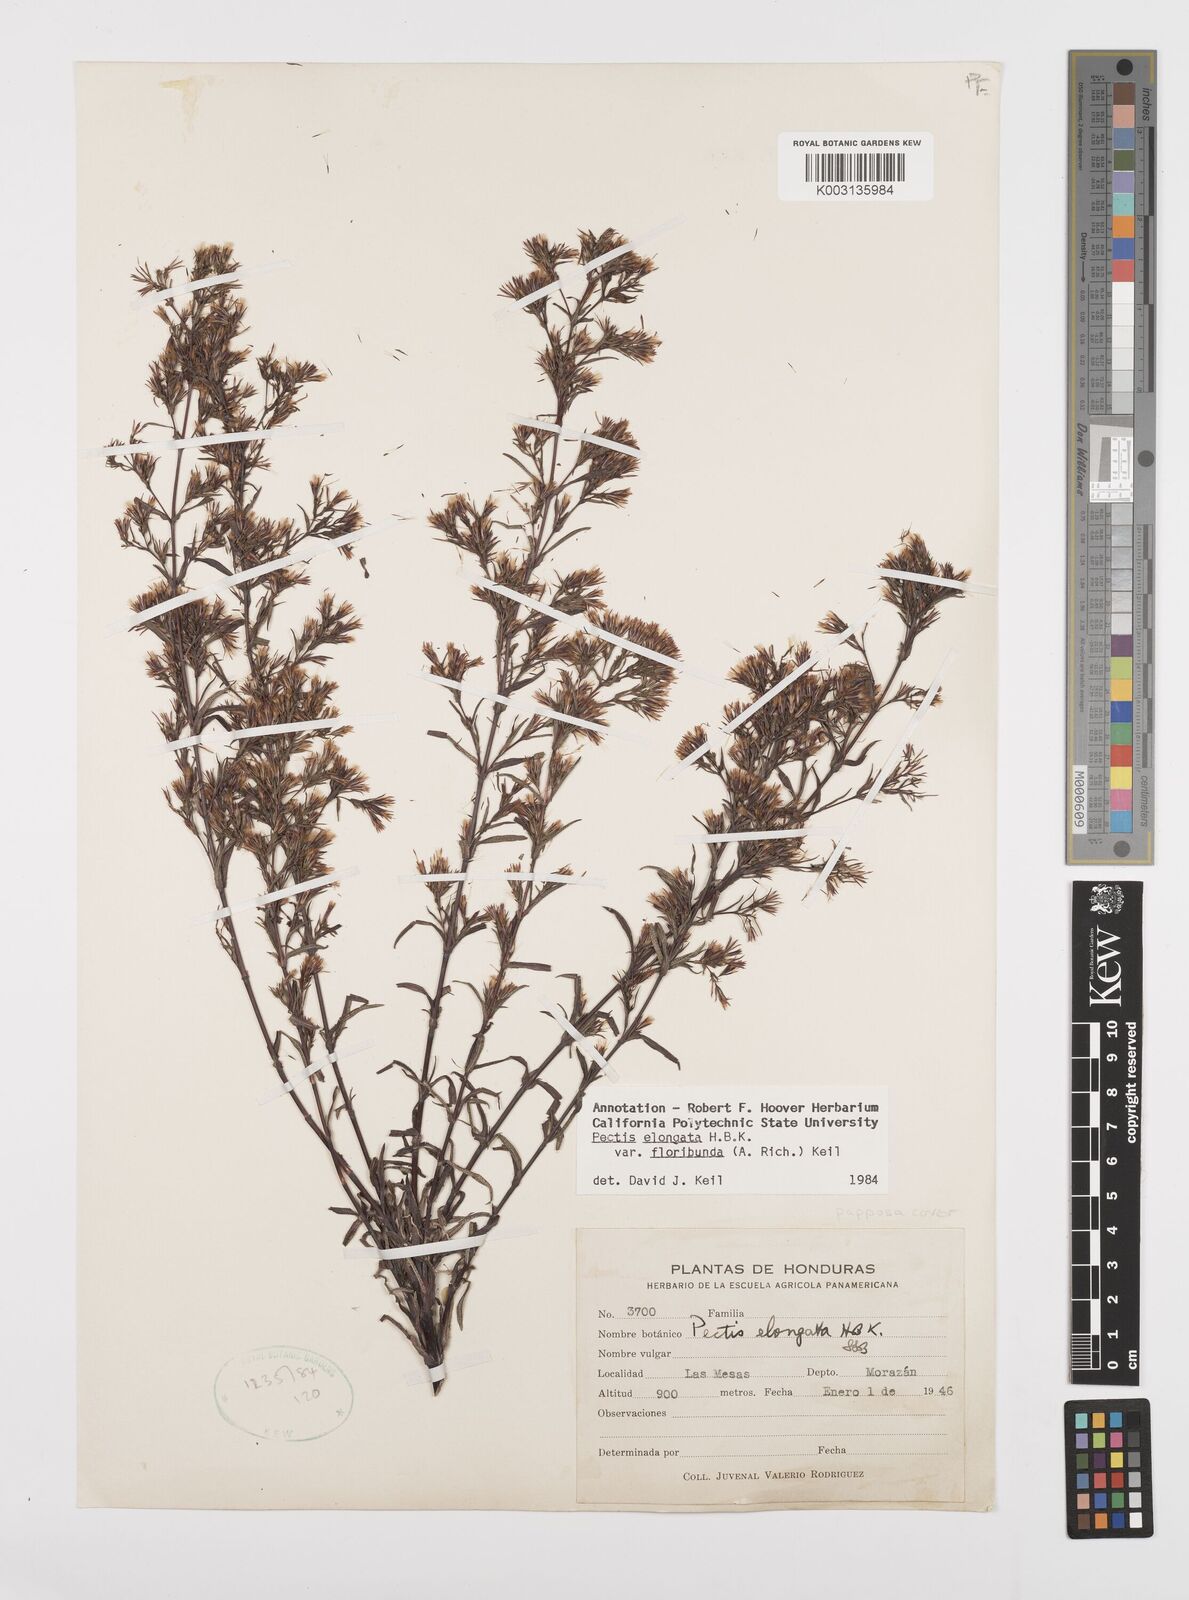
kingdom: Plantae
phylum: Tracheophyta
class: Magnoliopsida
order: Asterales
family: Asteraceae
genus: Pectis
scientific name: Pectis elongata
